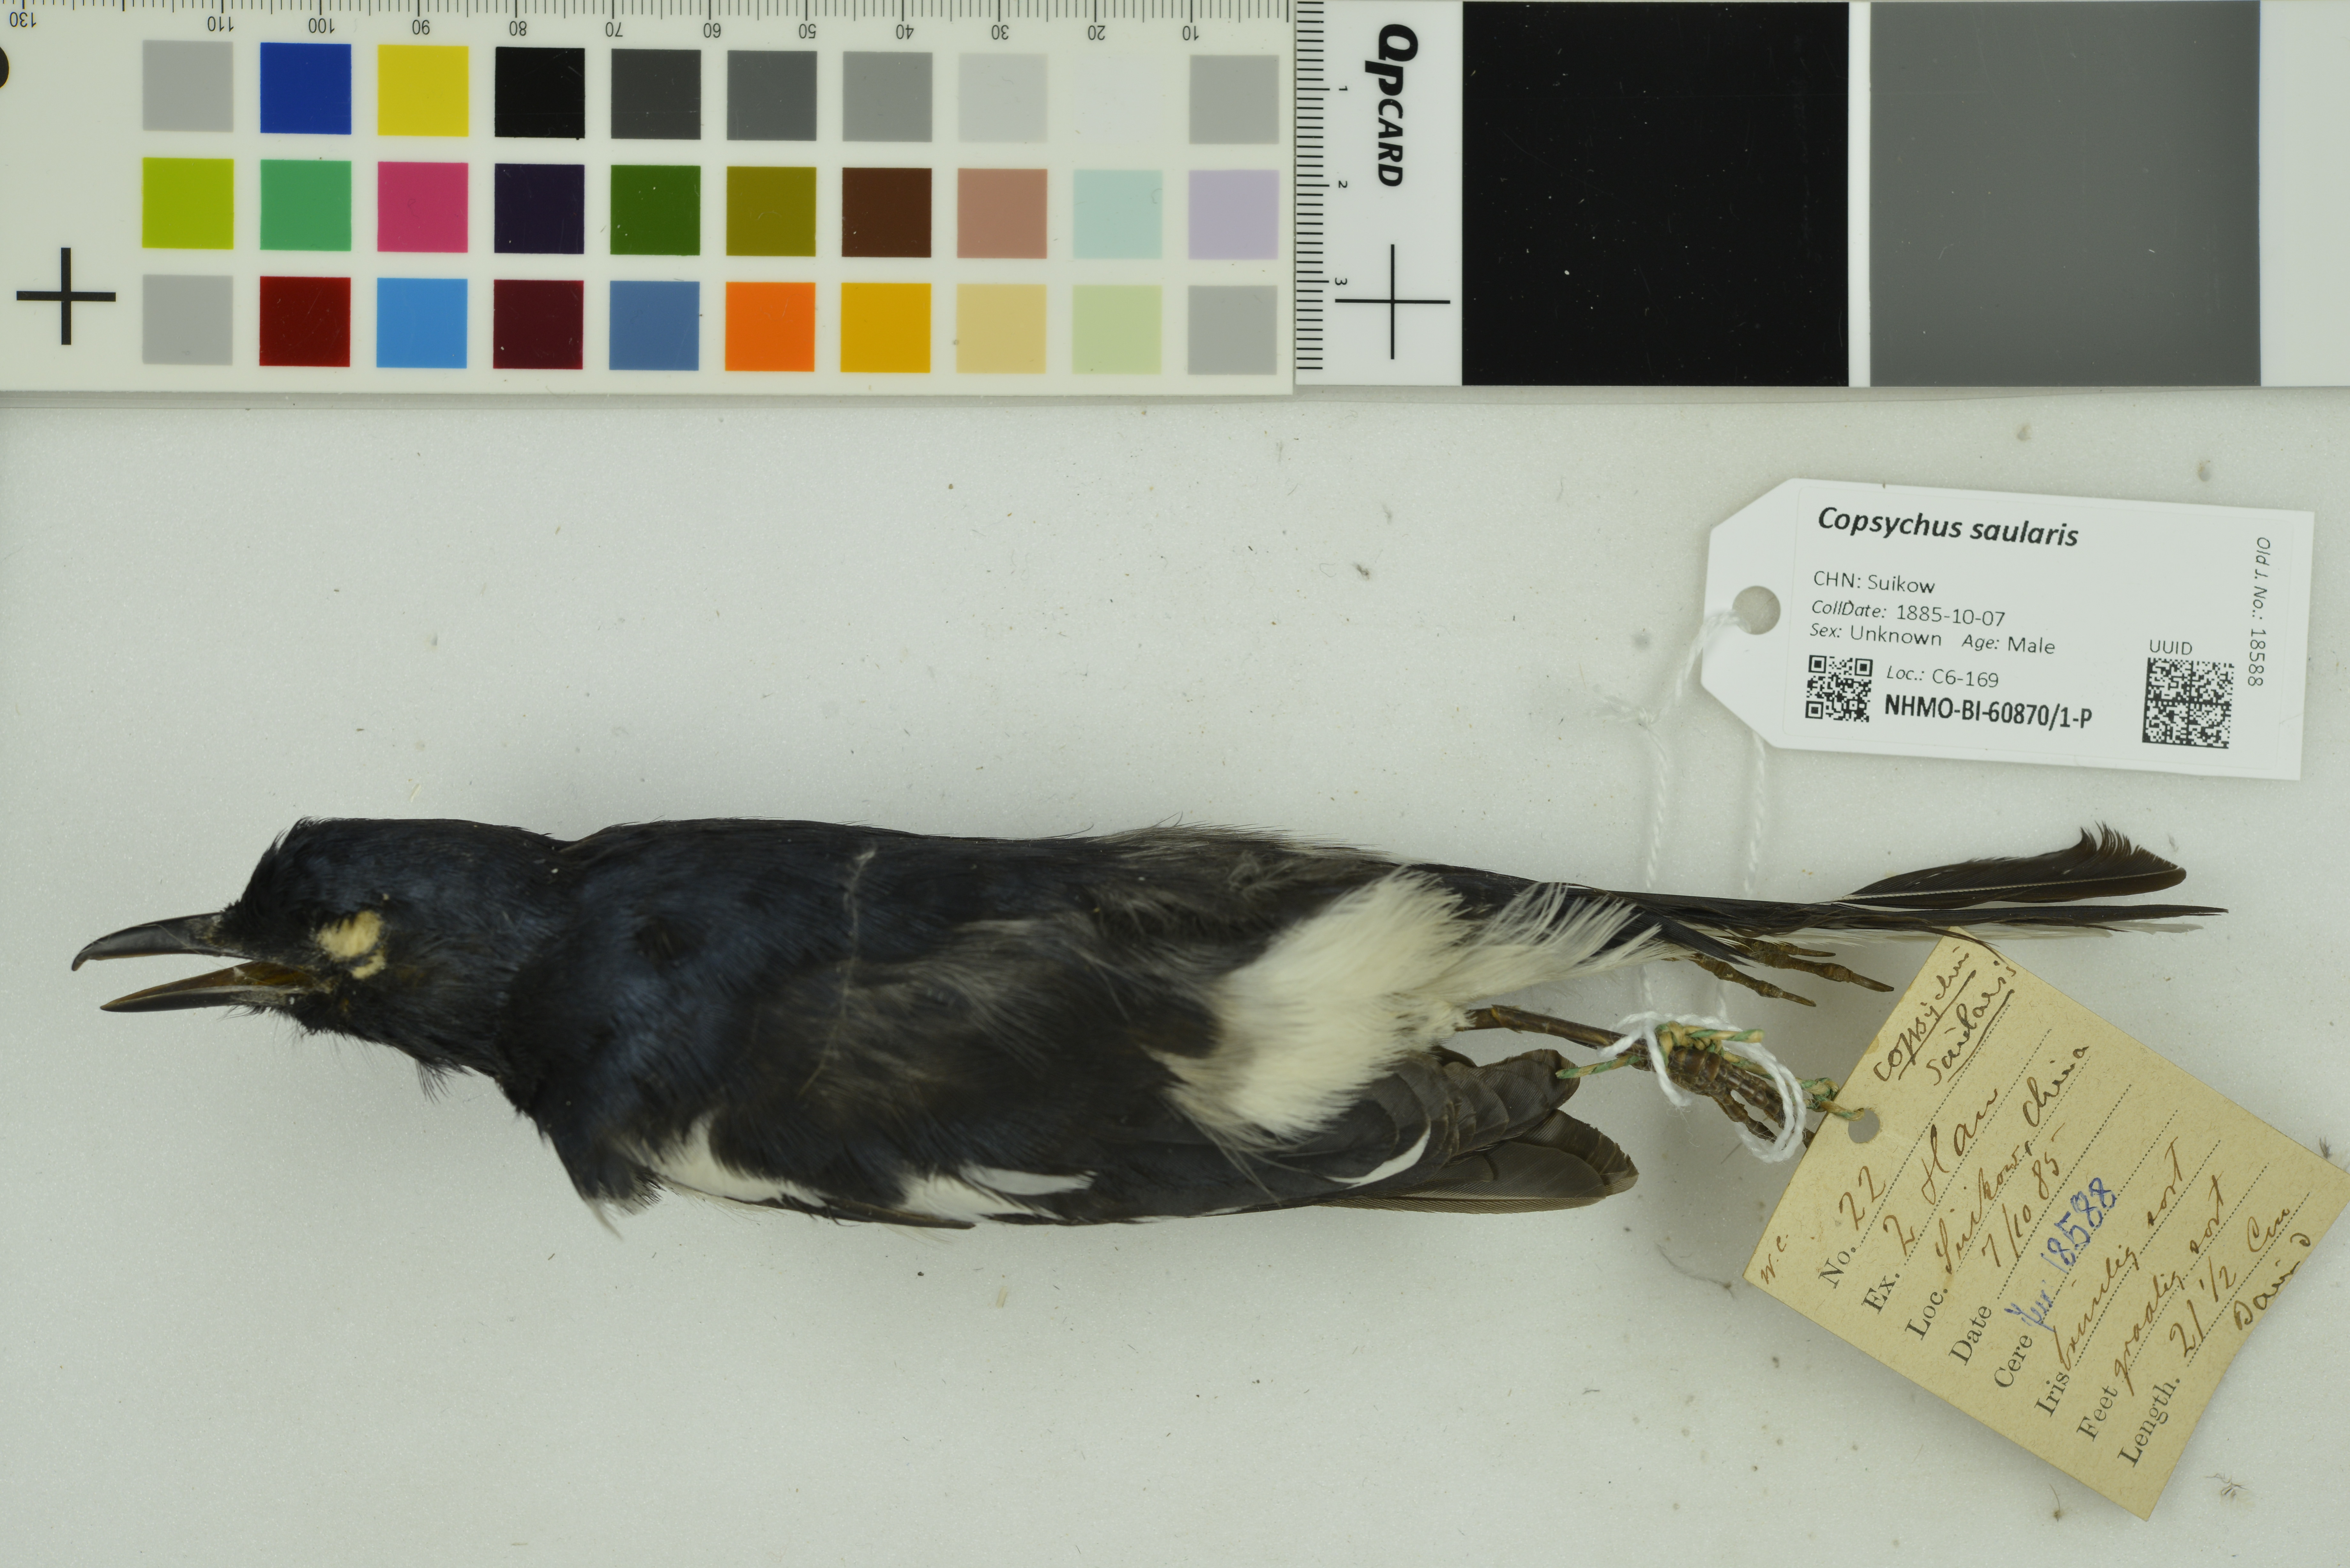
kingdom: Animalia
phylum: Chordata
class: Aves
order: Passeriformes
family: Muscicapidae
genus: Copsychus
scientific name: Copsychus saularis
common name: Oriental magpie-robin
